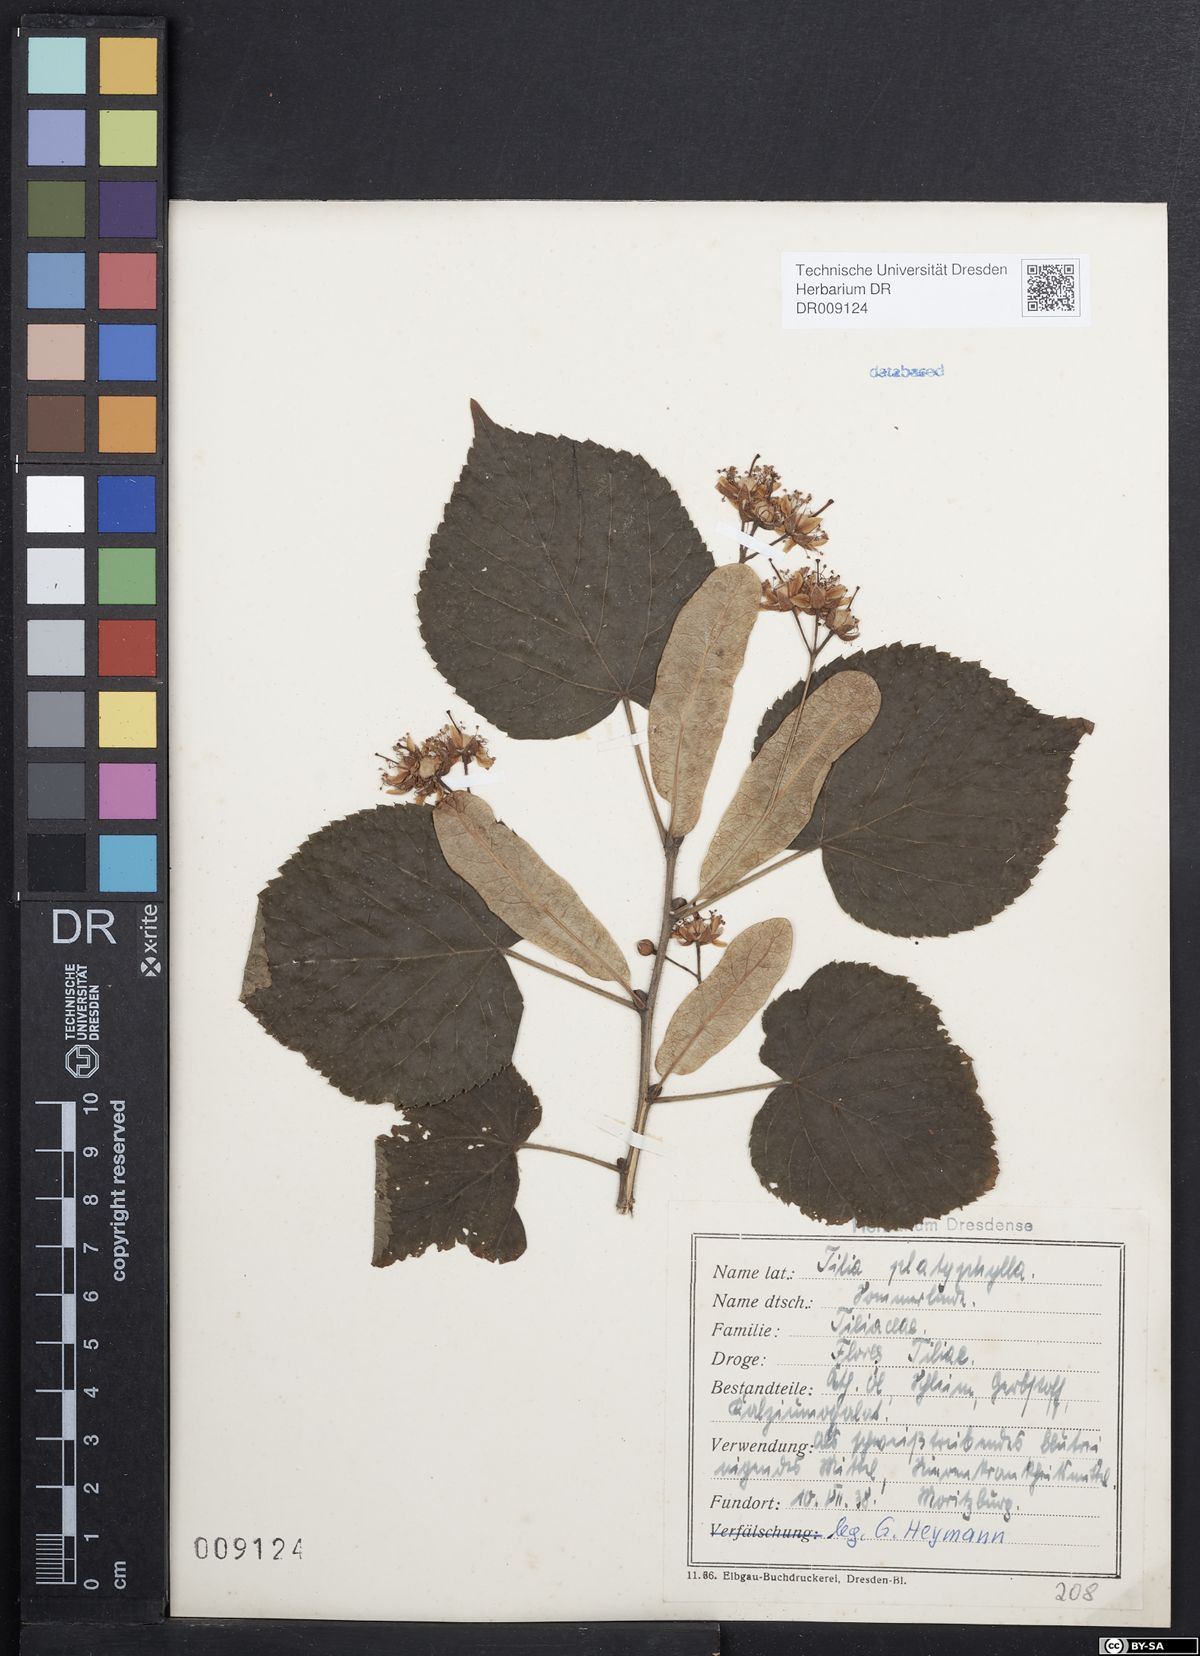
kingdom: Plantae
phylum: Tracheophyta
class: Magnoliopsida
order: Malvales
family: Malvaceae
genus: Tilia
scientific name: Tilia platyphyllos
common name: Large-leaved lime
